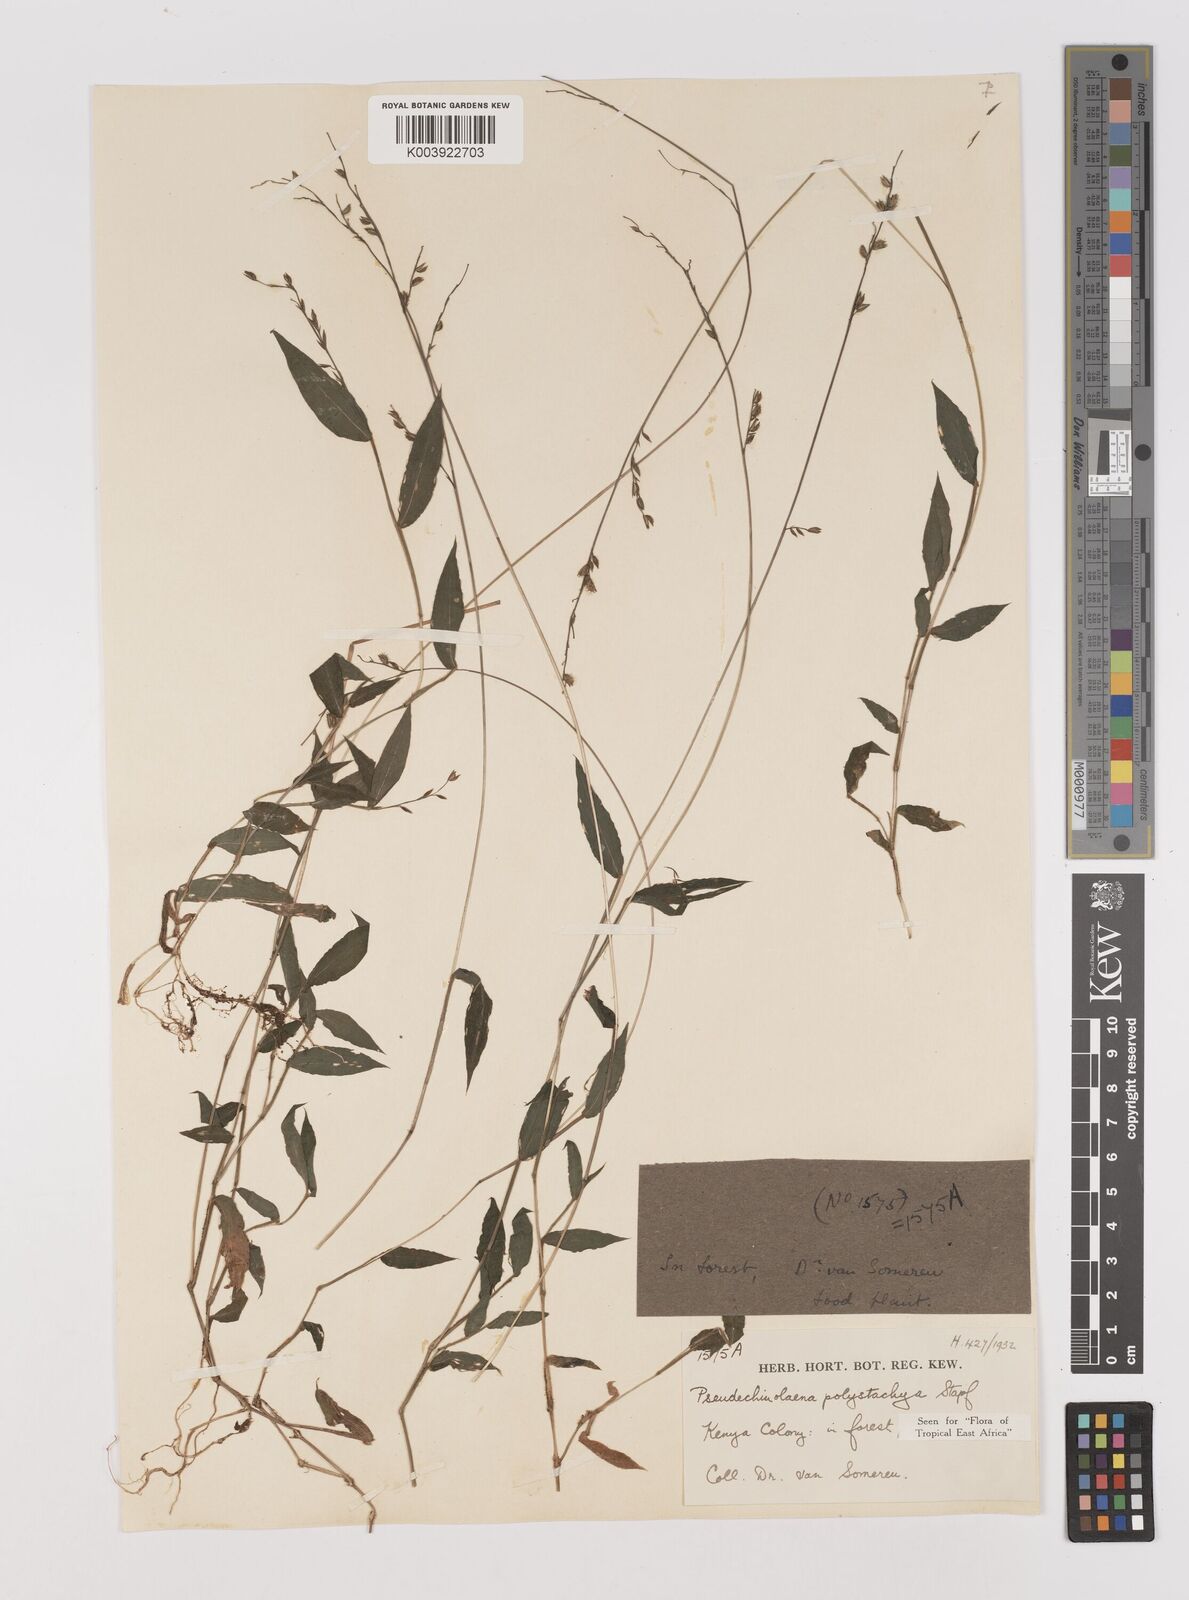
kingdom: Plantae
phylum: Tracheophyta
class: Liliopsida
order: Poales
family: Poaceae
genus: Pseudechinolaena
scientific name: Pseudechinolaena polystachya
